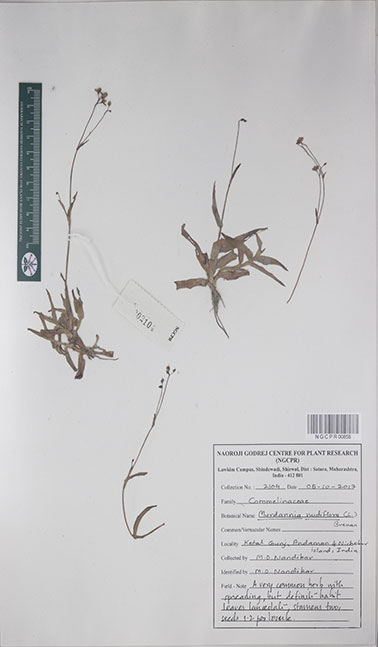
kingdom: Plantae
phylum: Tracheophyta
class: Liliopsida
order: Commelinales
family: Commelinaceae
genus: Murdannia
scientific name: Murdannia nudiflora
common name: Nakedstem dewflower
